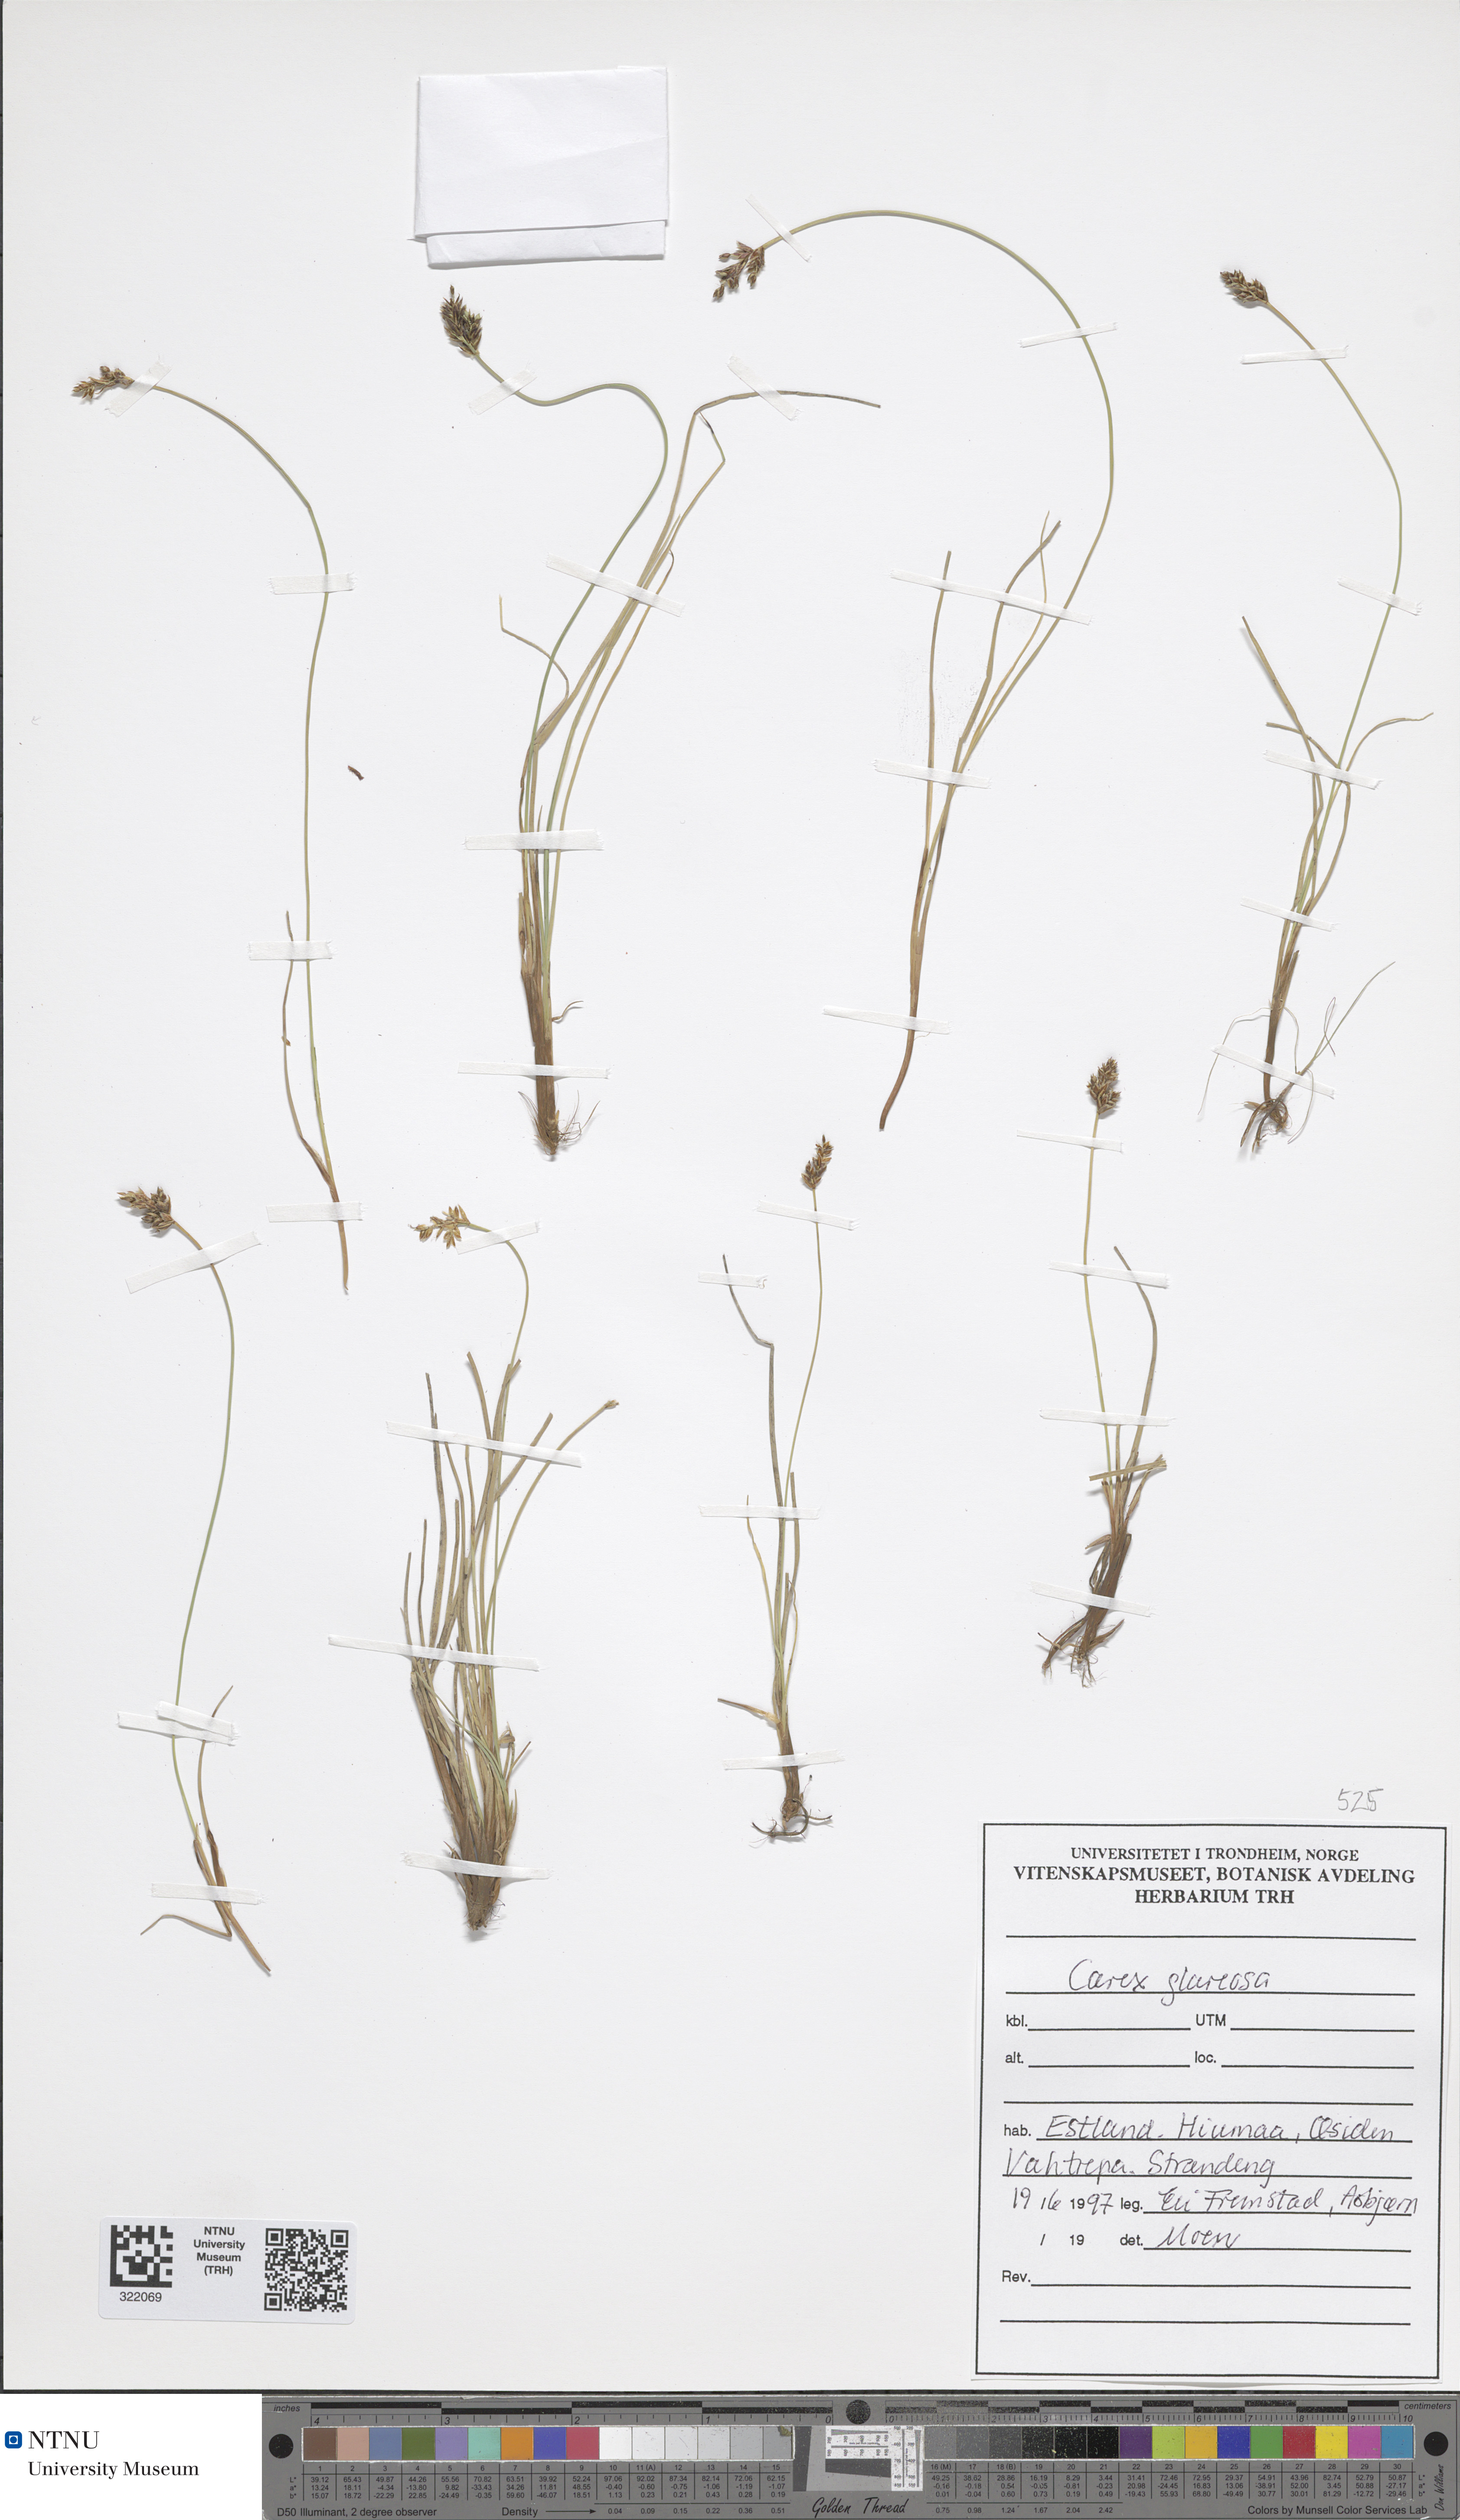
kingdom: Plantae
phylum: Tracheophyta
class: Liliopsida
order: Poales
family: Cyperaceae
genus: Carex
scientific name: Carex glareosa
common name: Clustered sedge
